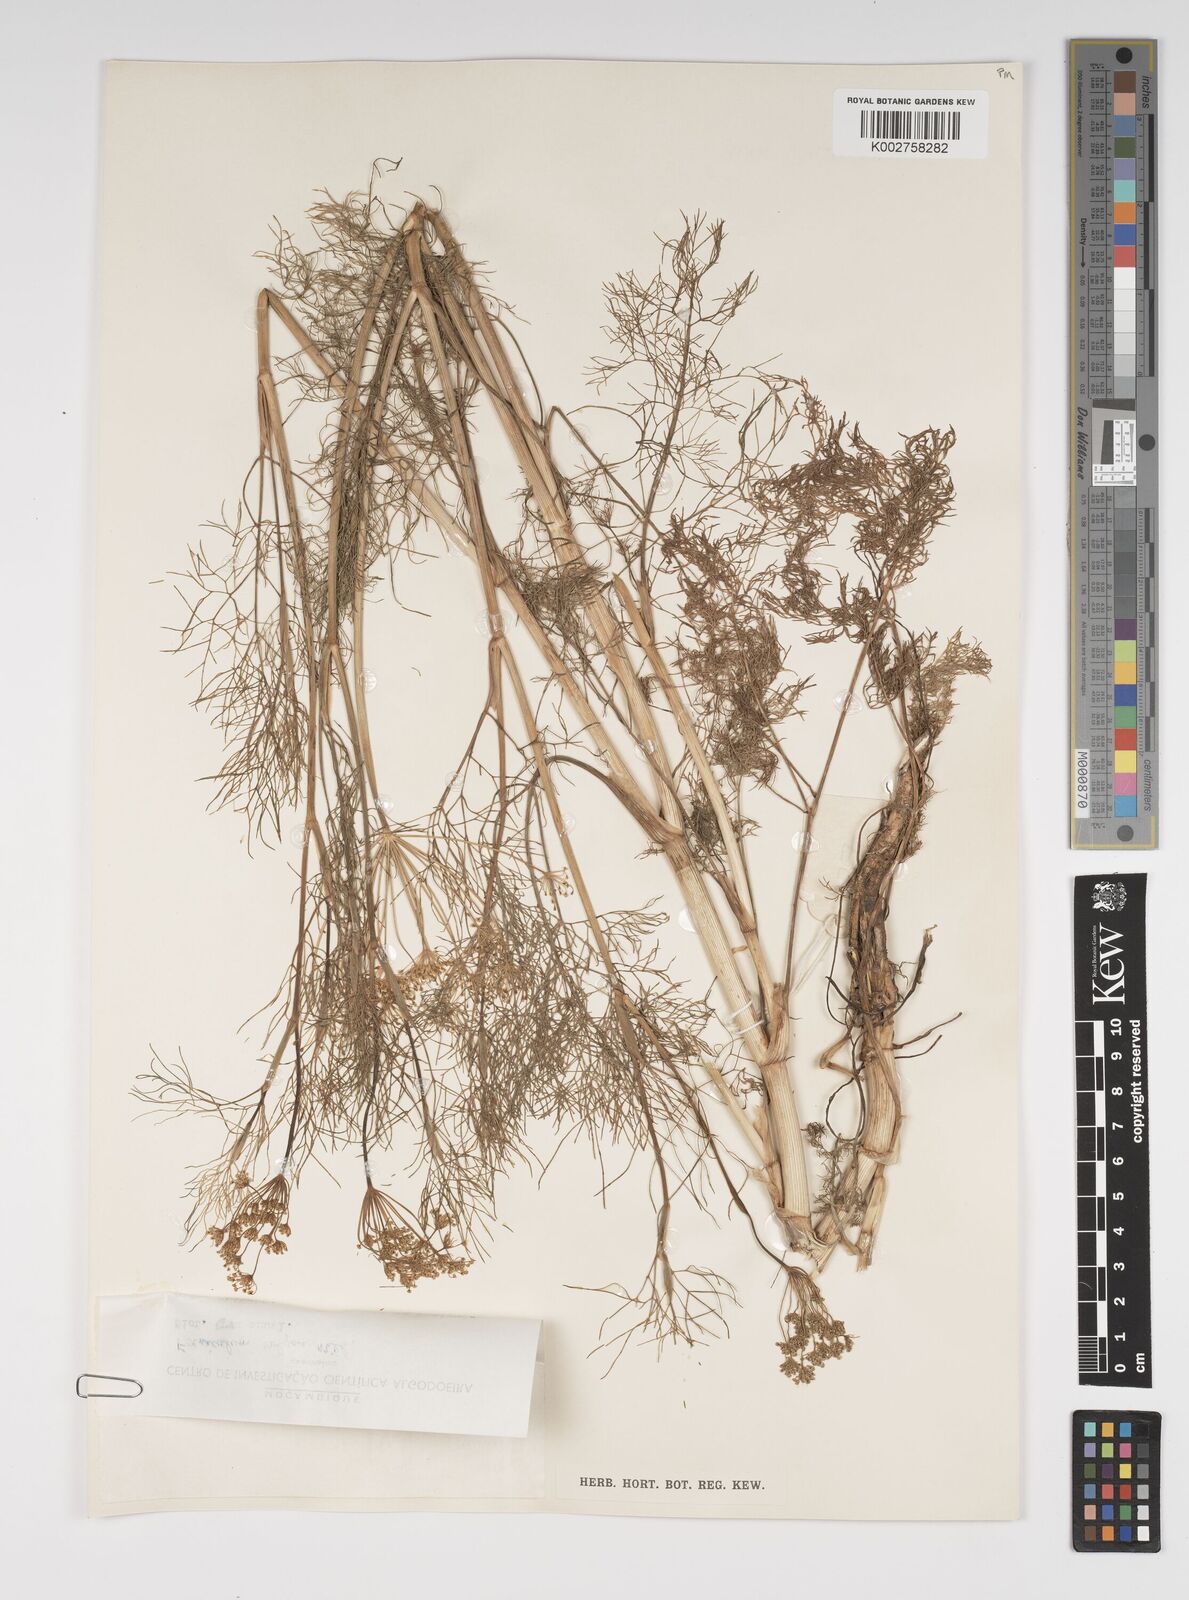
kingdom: Plantae
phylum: Tracheophyta
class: Magnoliopsida
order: Apiales
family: Apiaceae
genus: Foeniculum
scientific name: Foeniculum vulgare
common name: Fennel
